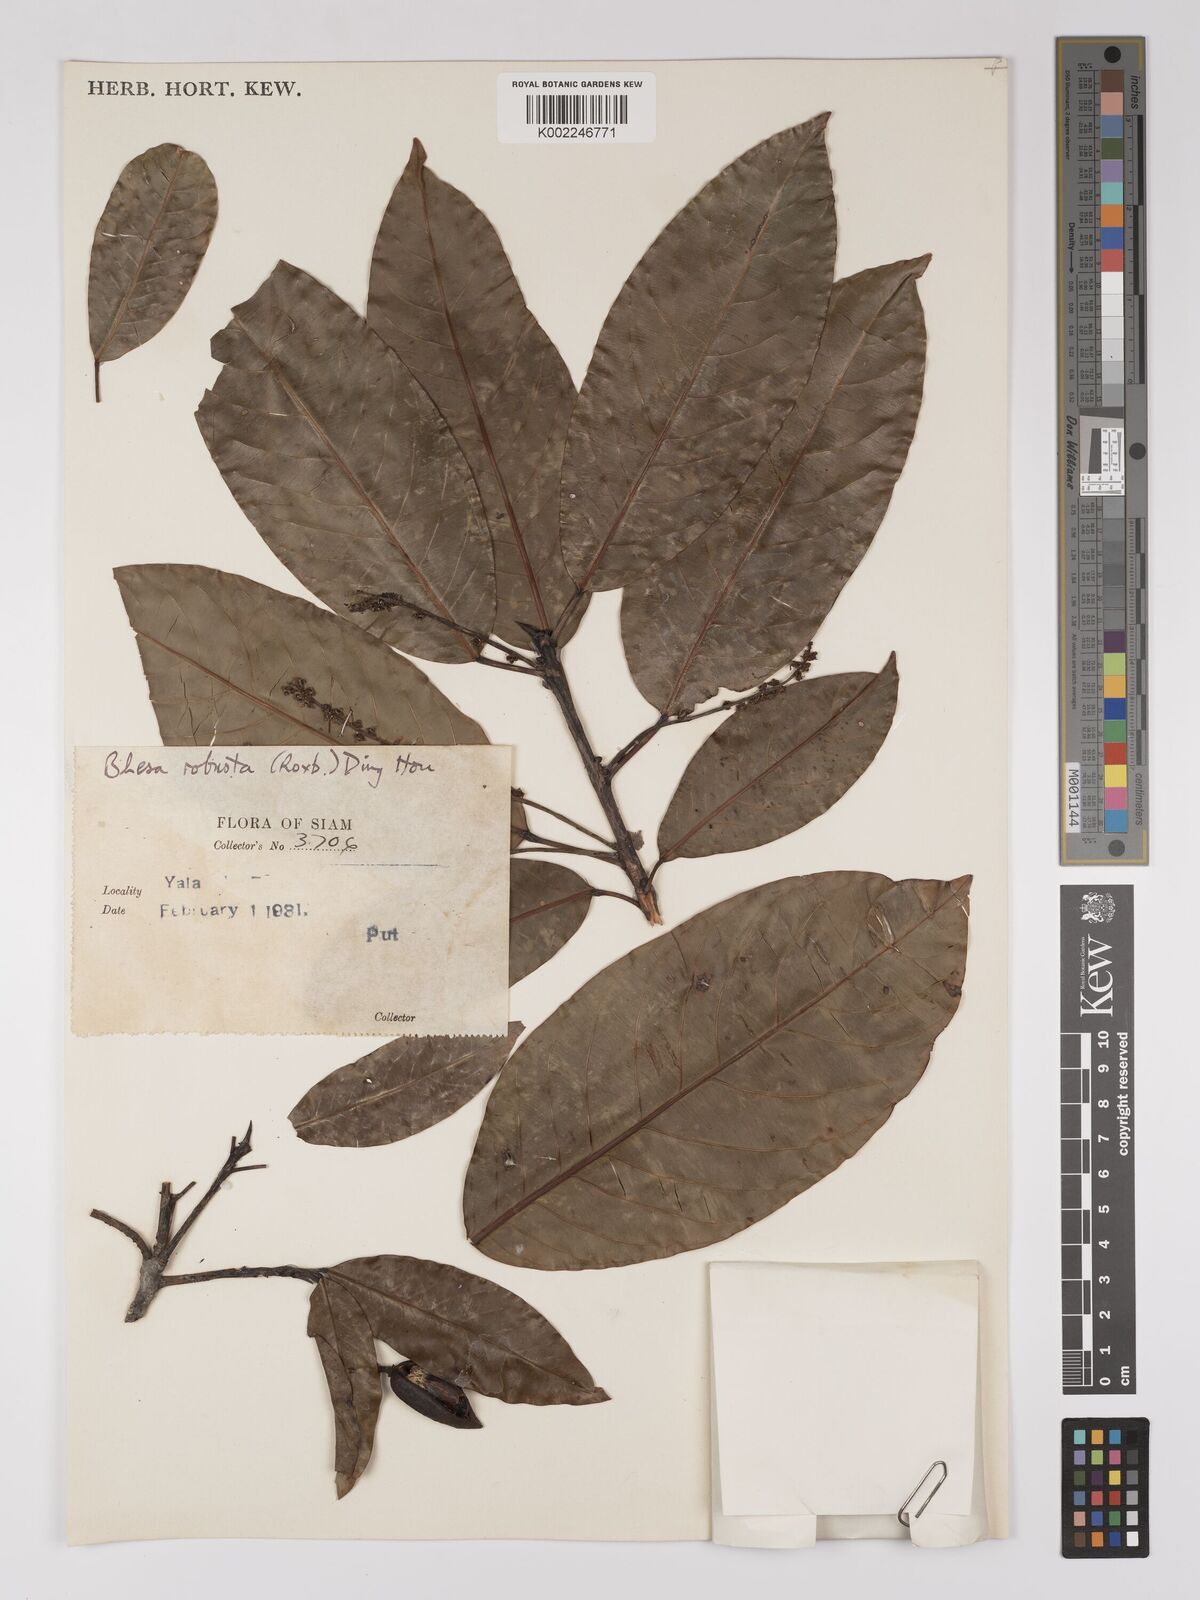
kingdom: Plantae
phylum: Tracheophyta
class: Magnoliopsida
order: Malpighiales
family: Centroplacaceae
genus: Bhesa
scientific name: Bhesa robusta
